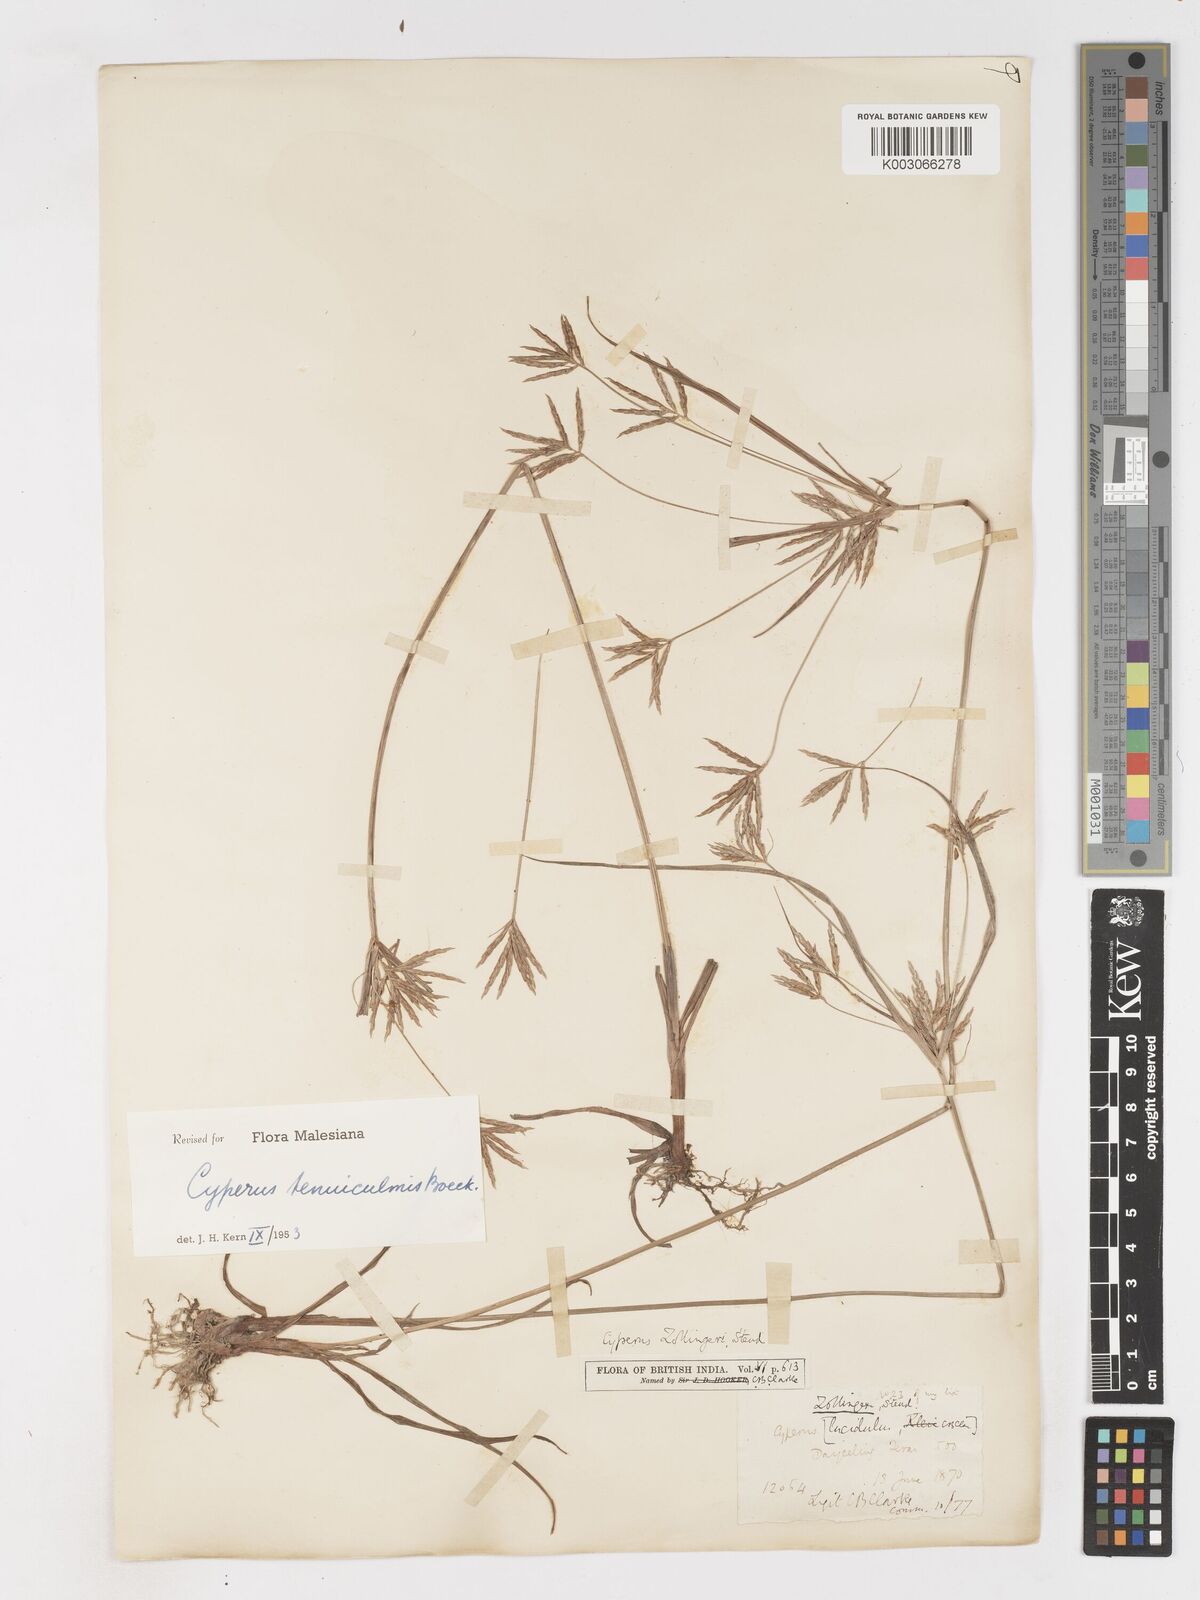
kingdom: Plantae
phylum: Tracheophyta
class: Liliopsida
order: Poales
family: Cyperaceae
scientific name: Cyperaceae
